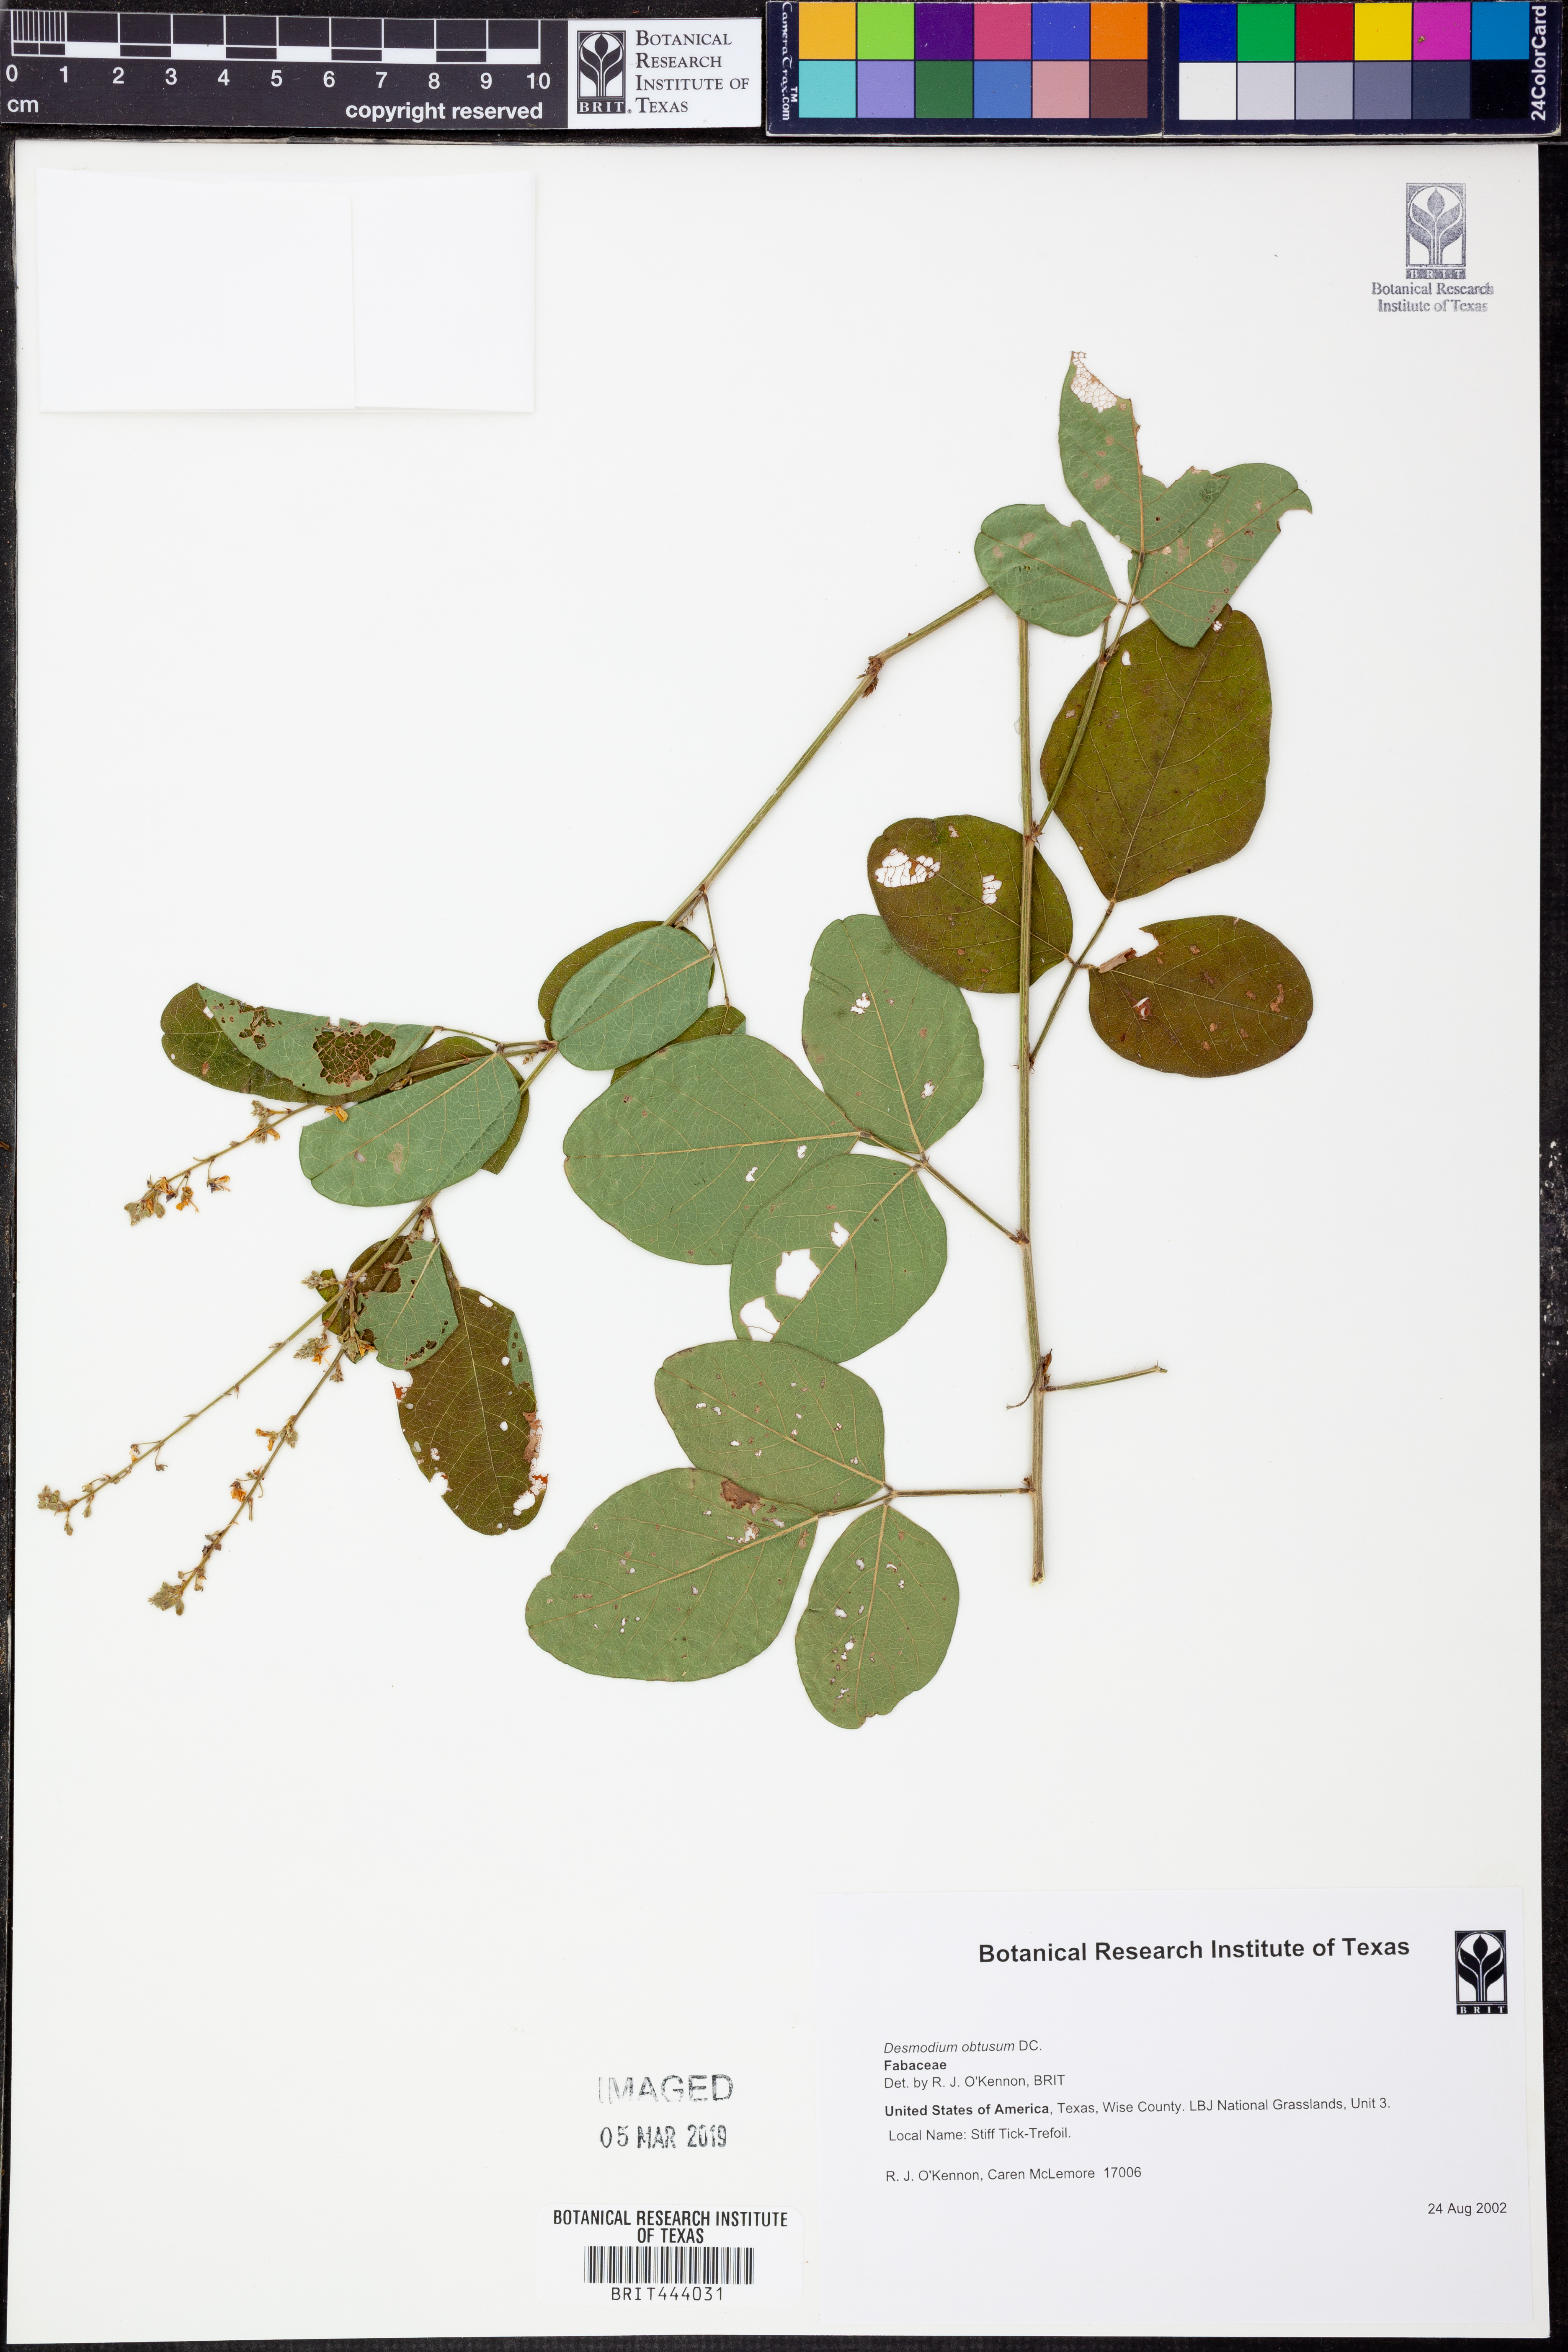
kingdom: Plantae
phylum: Tracheophyta
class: Magnoliopsida
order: Fabales
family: Fabaceae
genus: Desmodium
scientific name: Desmodium obtusum
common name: Stiff tick trefoil
